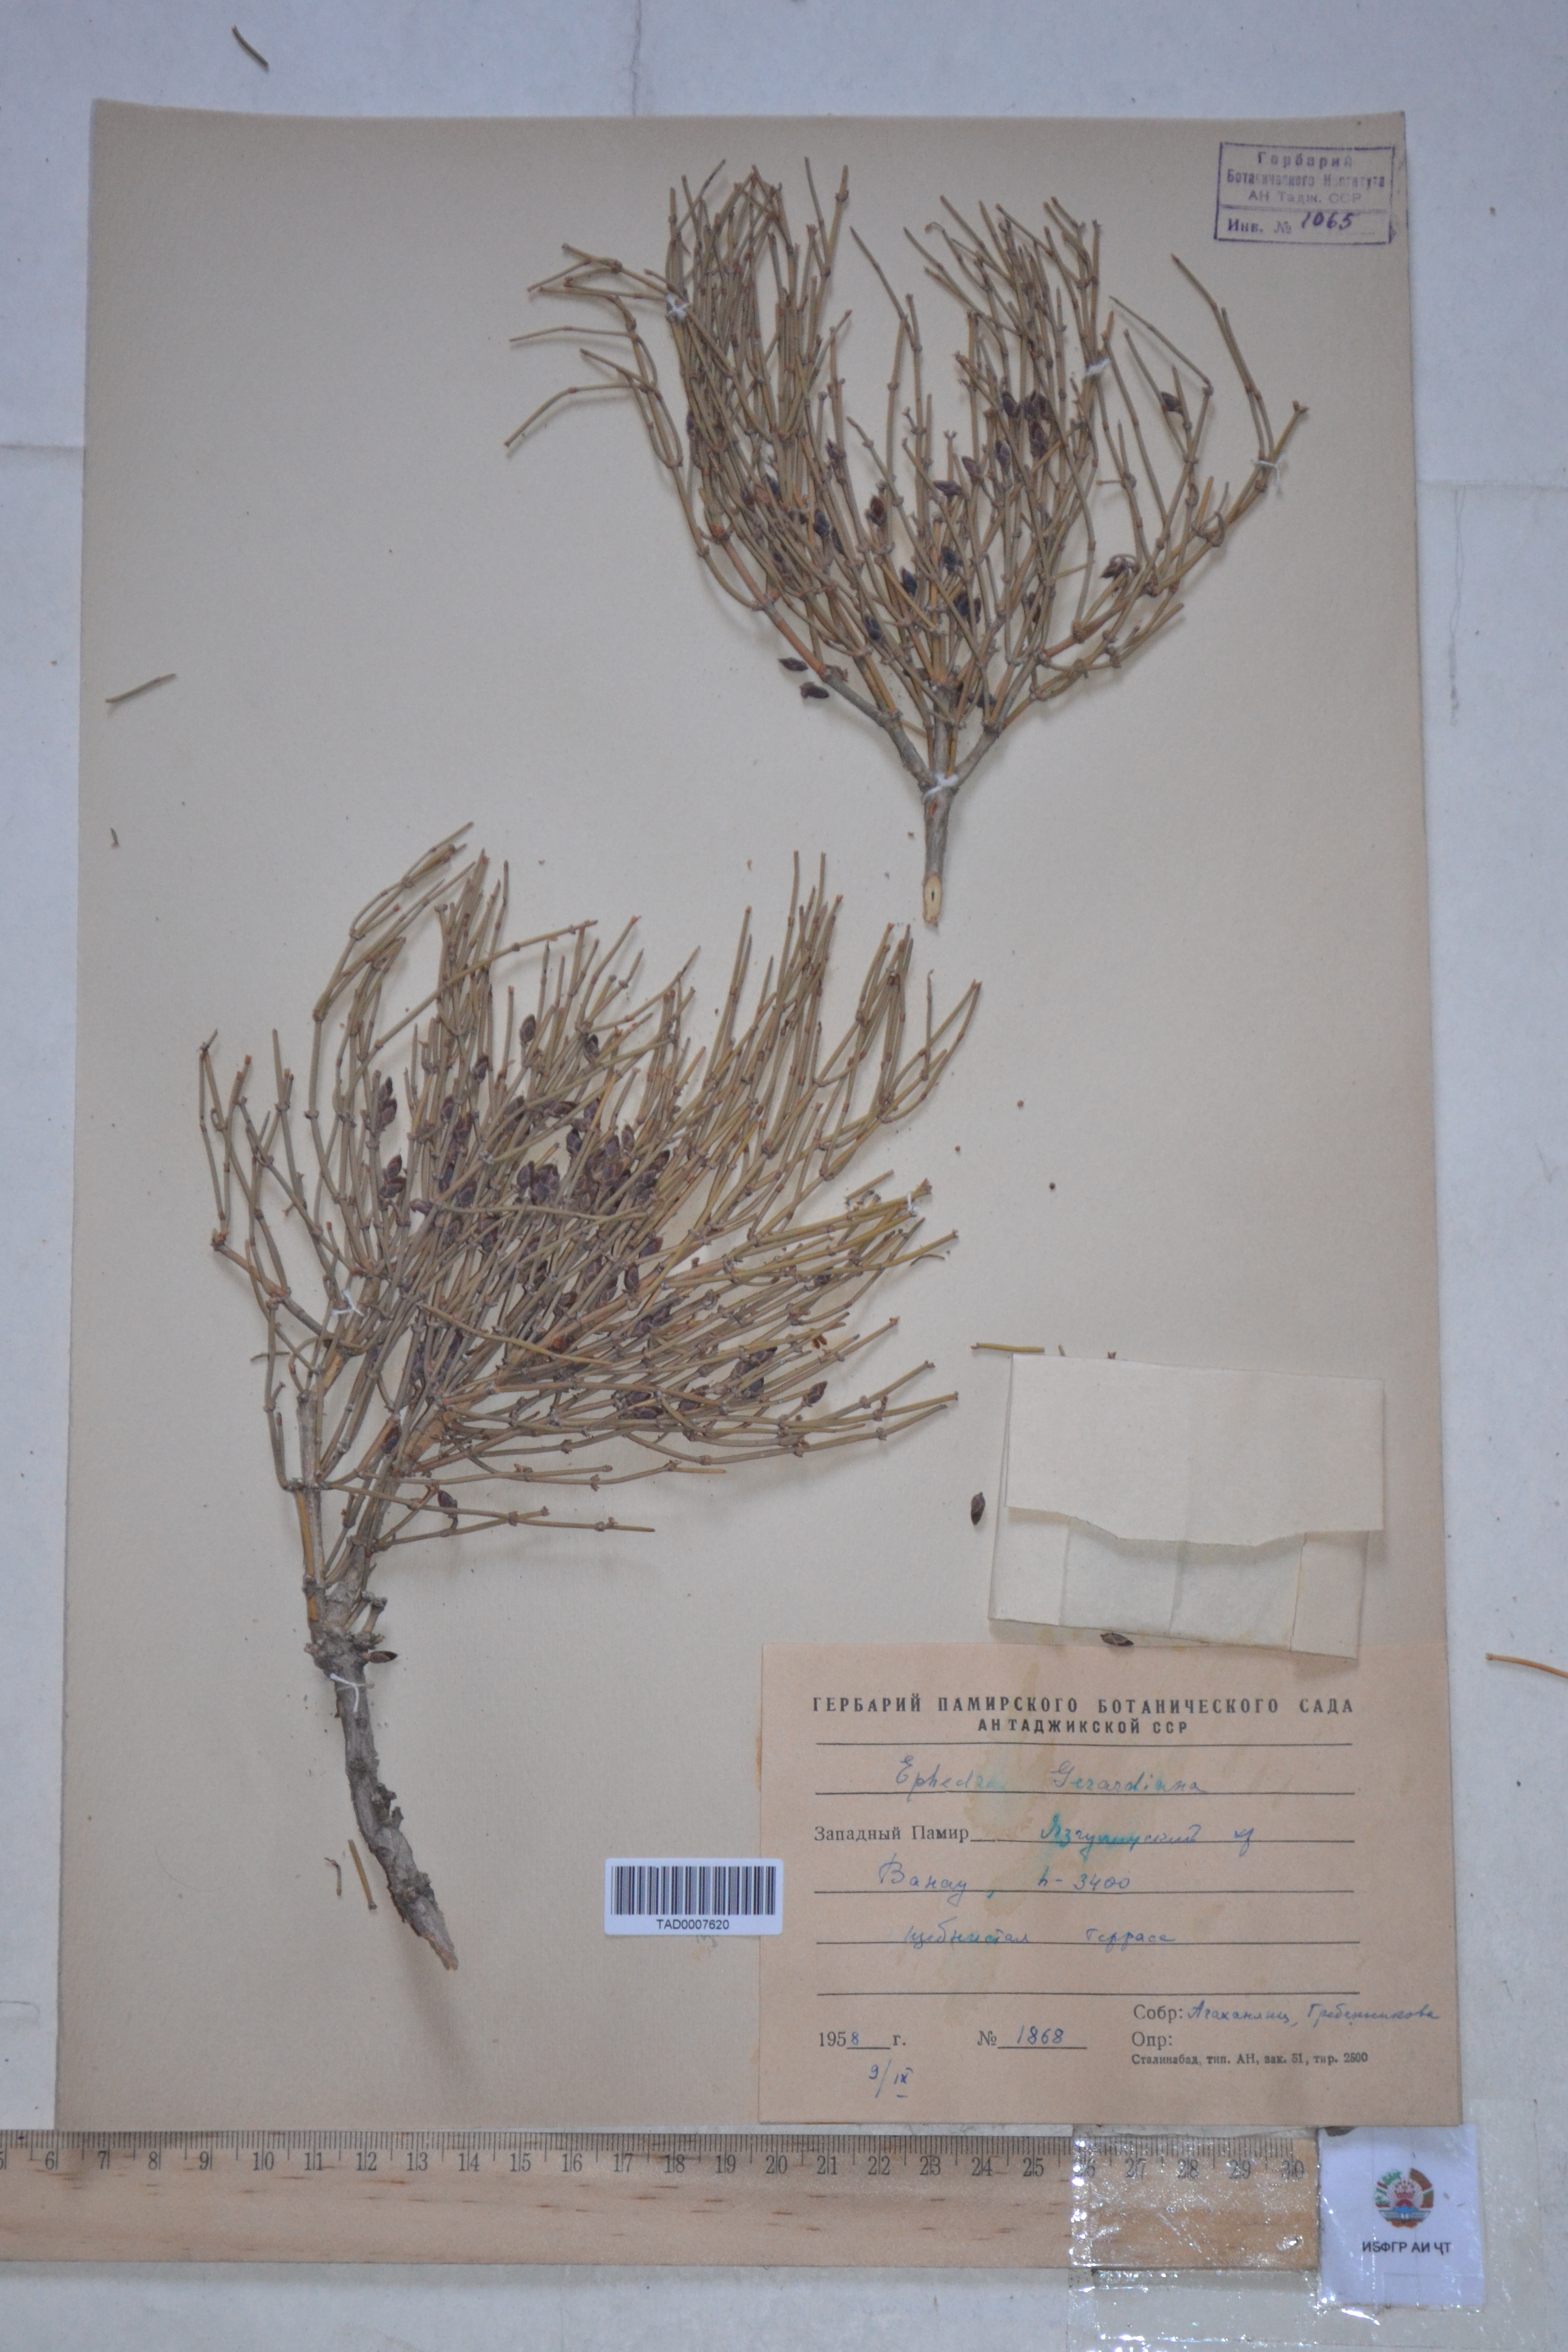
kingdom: Plantae
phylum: Tracheophyta
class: Gnetopsida
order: Ephedrales
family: Ephedraceae
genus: Ephedra
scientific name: Ephedra gerardiana
